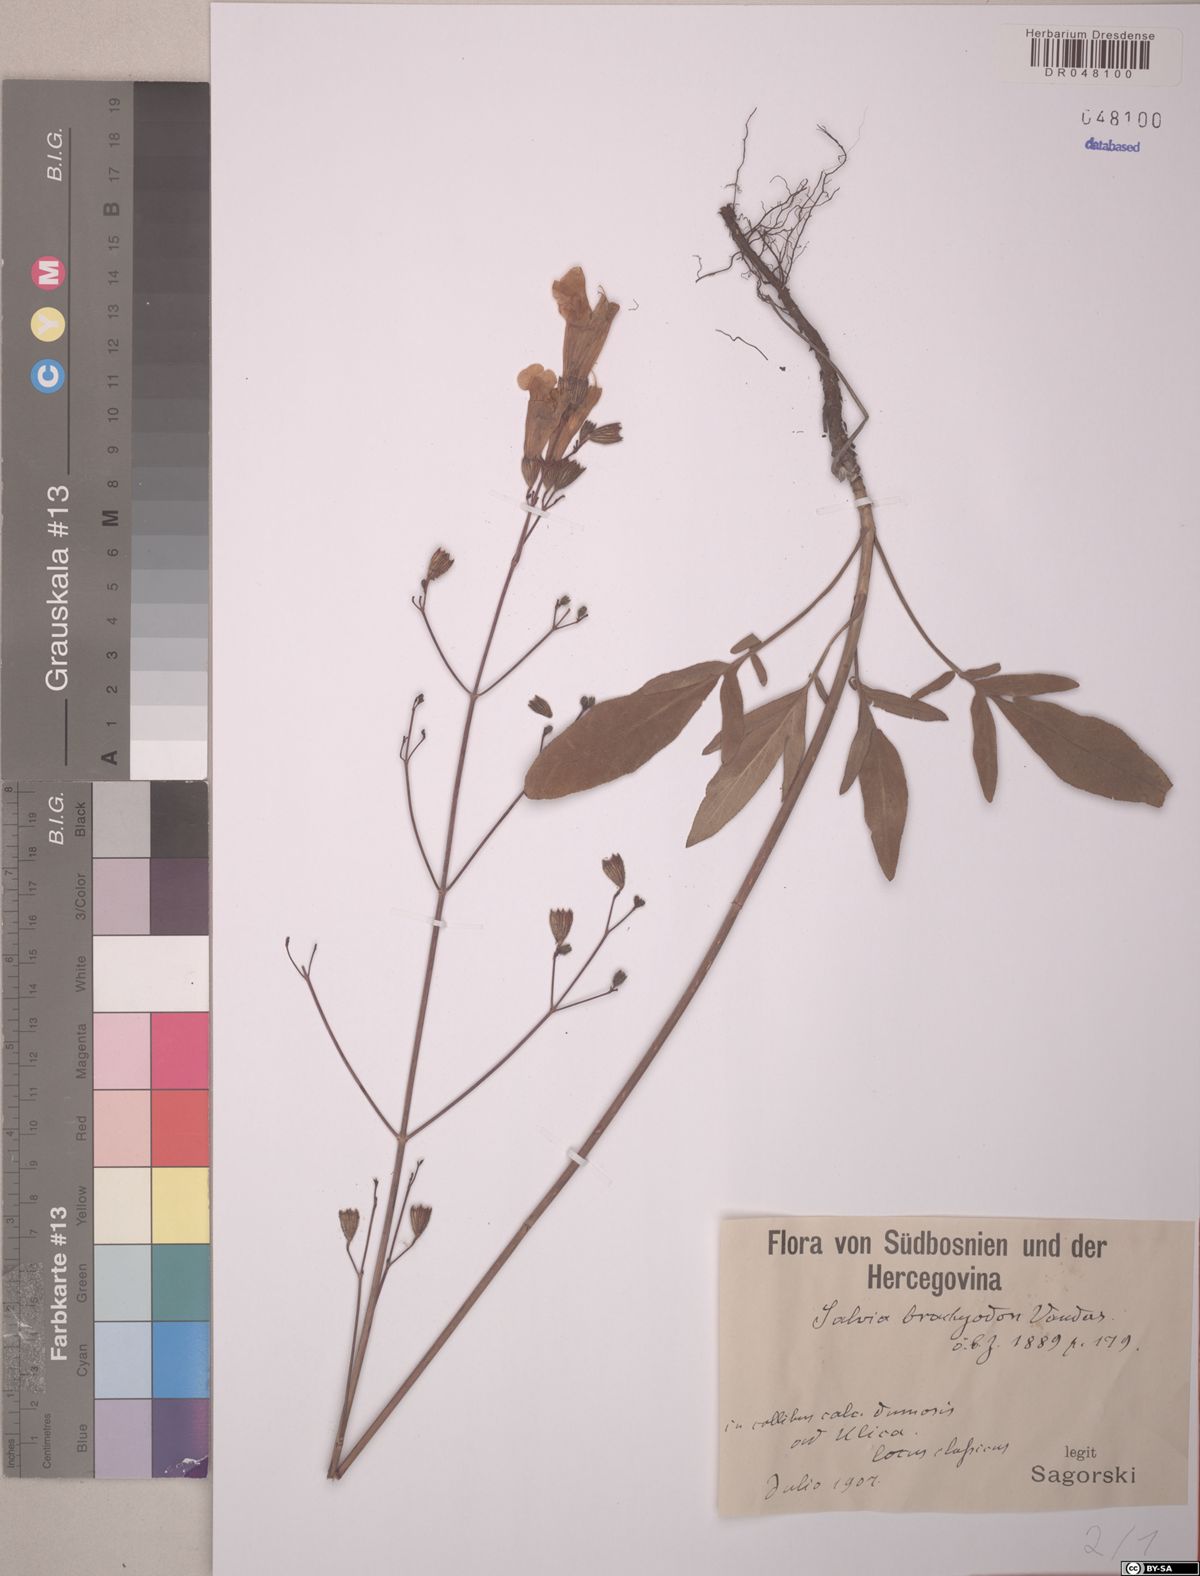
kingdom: Plantae
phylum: Tracheophyta
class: Magnoliopsida
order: Lamiales
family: Lamiaceae
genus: Salvia
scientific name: Salvia brachyodon
